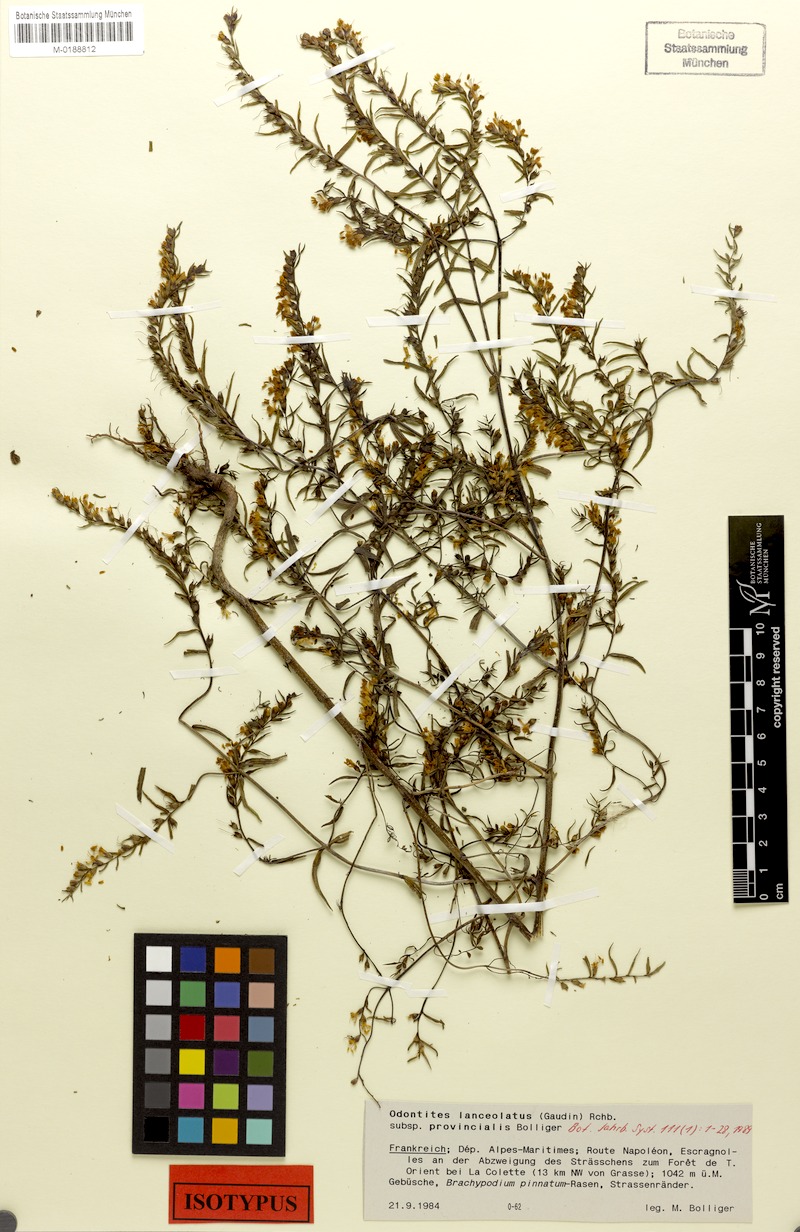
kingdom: Plantae
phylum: Tracheophyta
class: Magnoliopsida
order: Lamiales
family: Orobanchaceae
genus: Odontites
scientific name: Odontites lanceolatus
